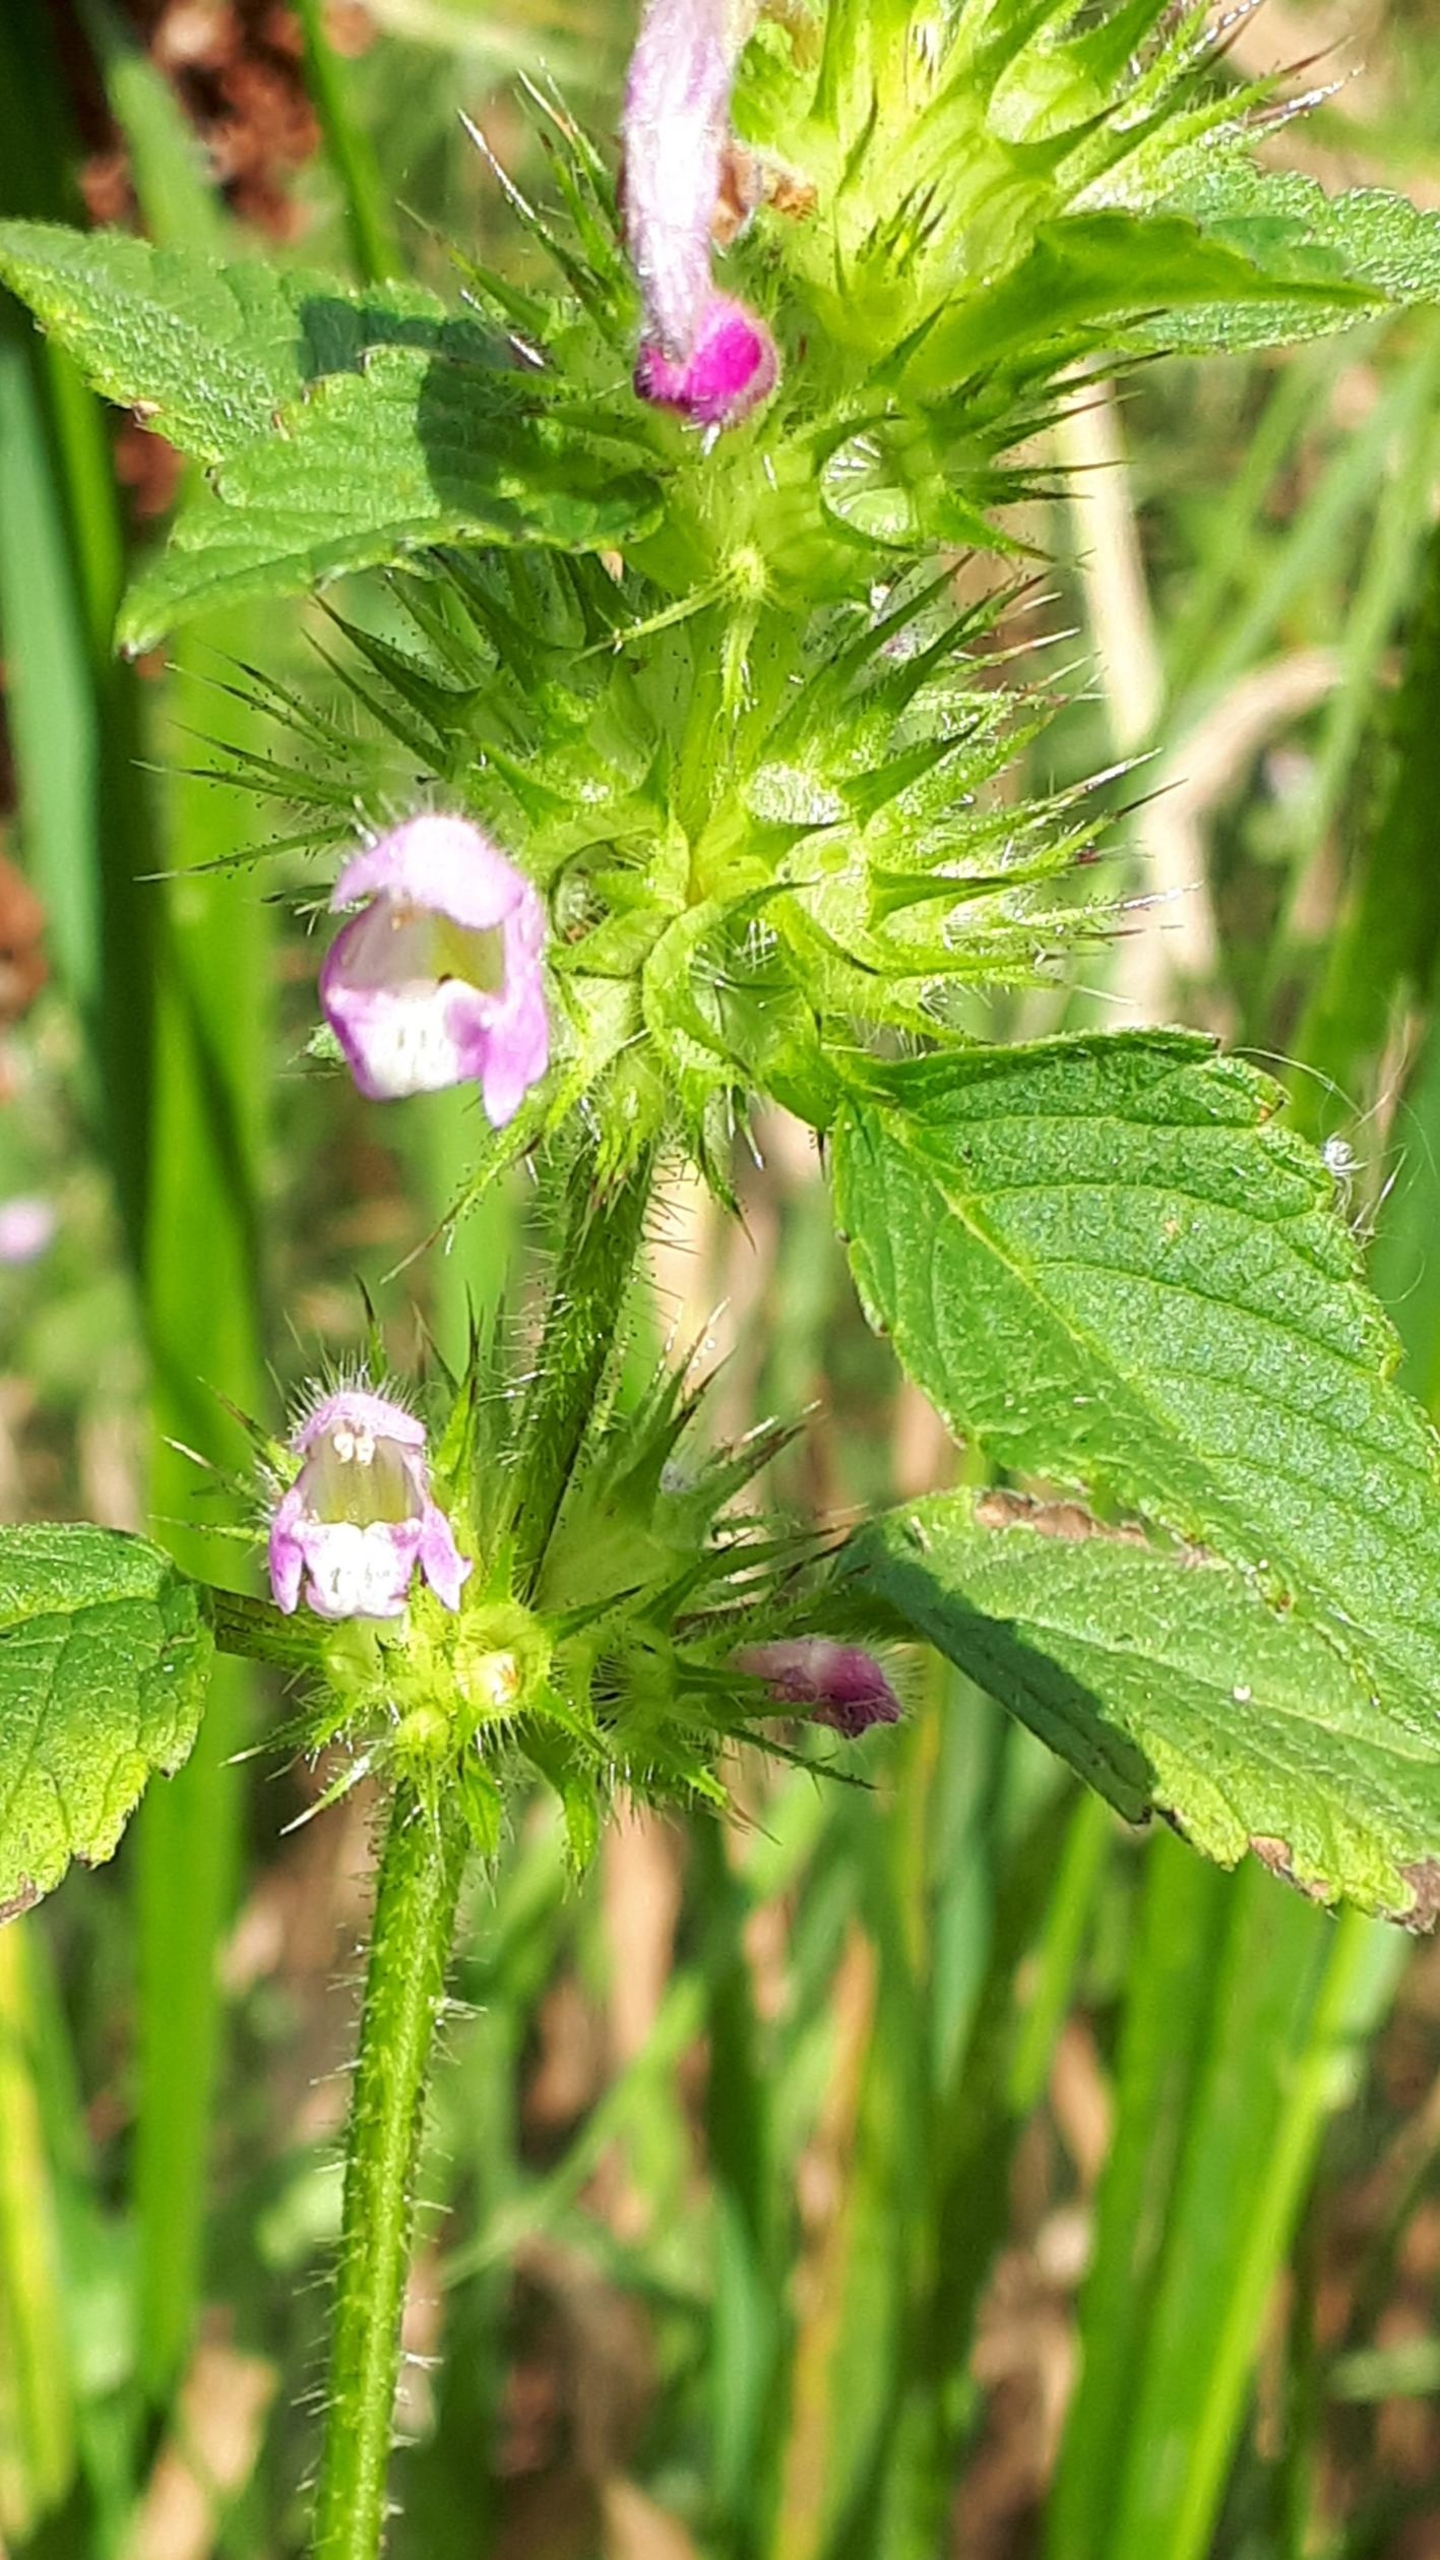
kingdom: Plantae
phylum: Tracheophyta
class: Magnoliopsida
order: Lamiales
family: Lamiaceae
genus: Galeopsis
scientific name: Galeopsis tetrahit
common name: Almindelig hanekro
